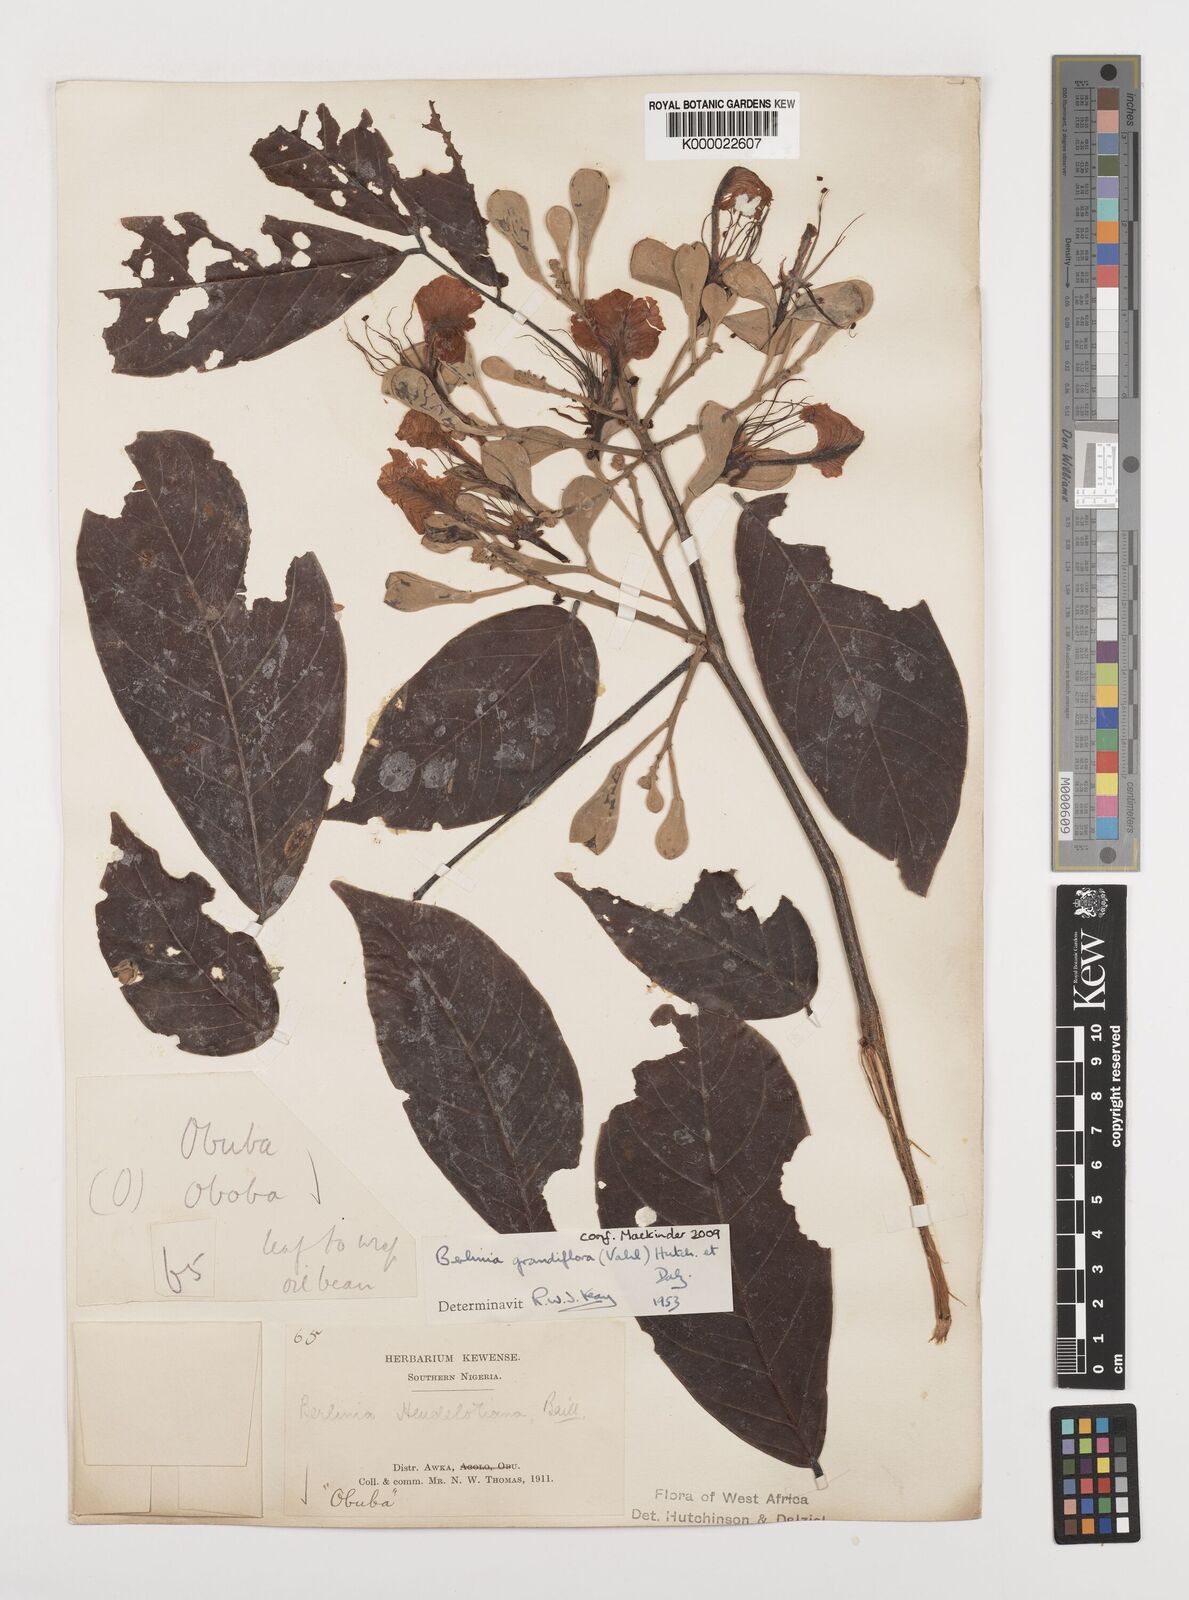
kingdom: Plantae
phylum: Tracheophyta
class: Magnoliopsida
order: Fabales
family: Fabaceae
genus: Berlinia
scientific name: Berlinia grandiflora
